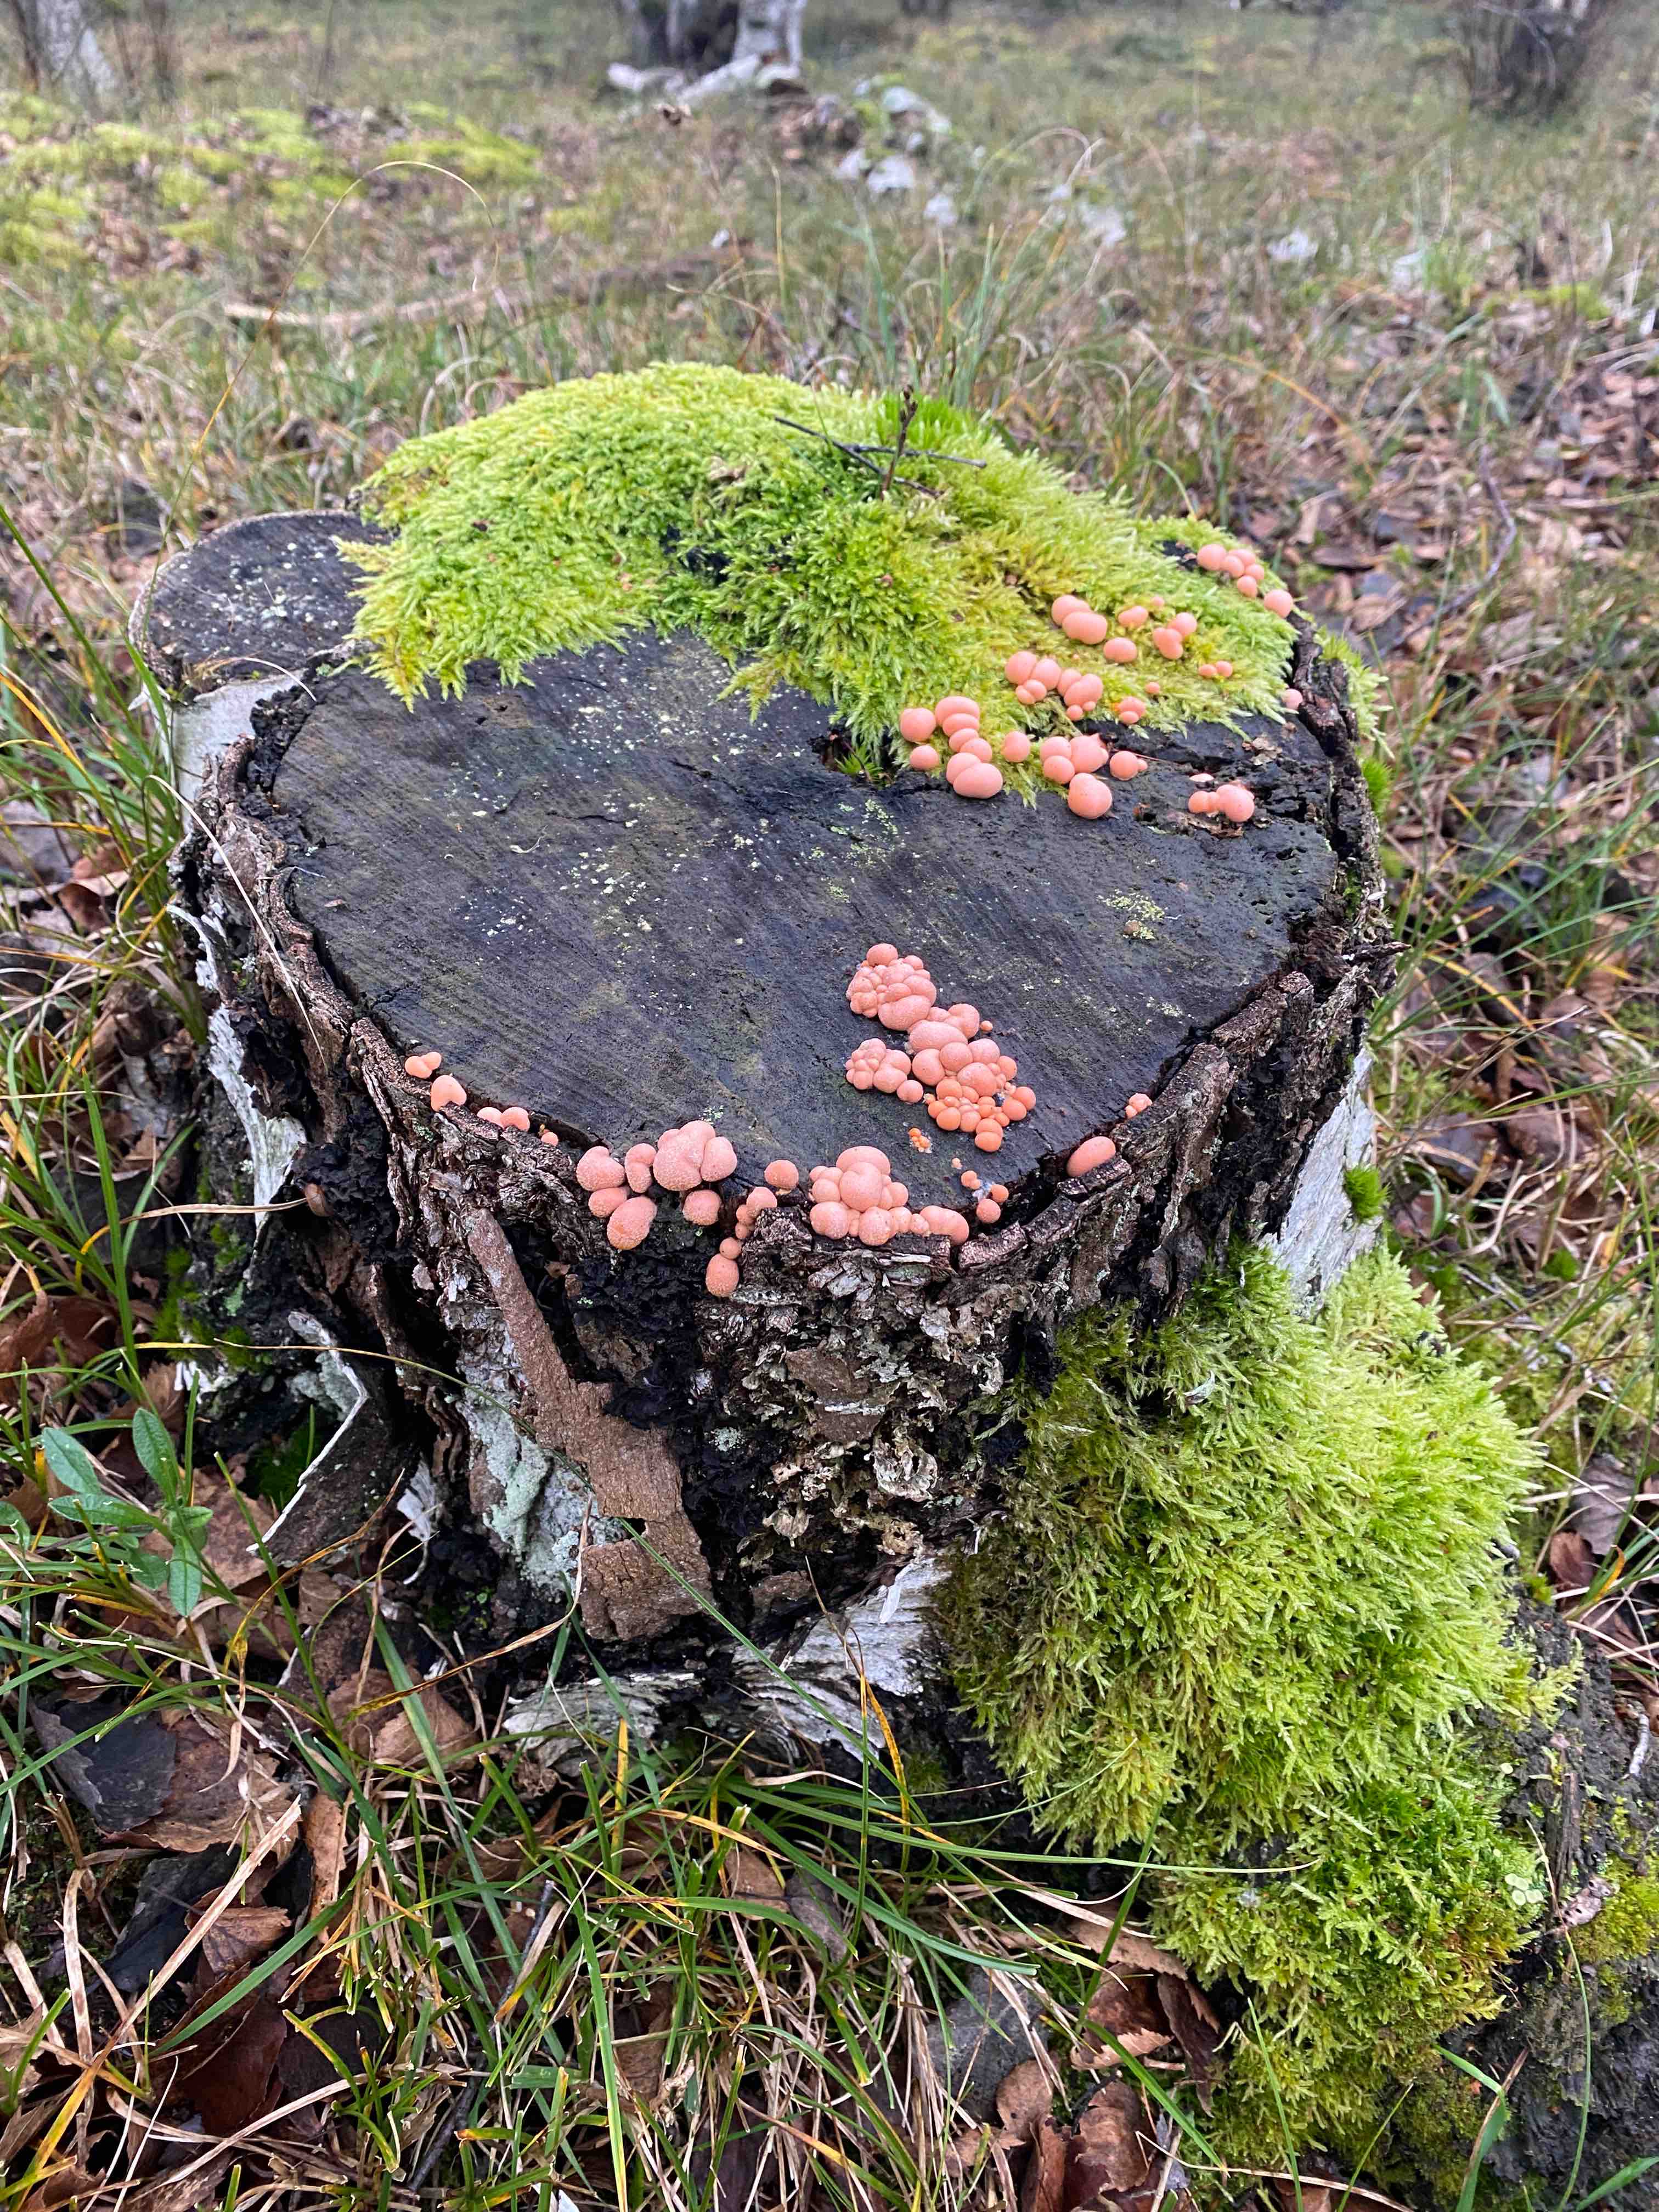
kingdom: Protozoa
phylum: Mycetozoa
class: Myxomycetes
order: Cribrariales
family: Tubiferaceae
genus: Lycogala
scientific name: Lycogala epidendrum
